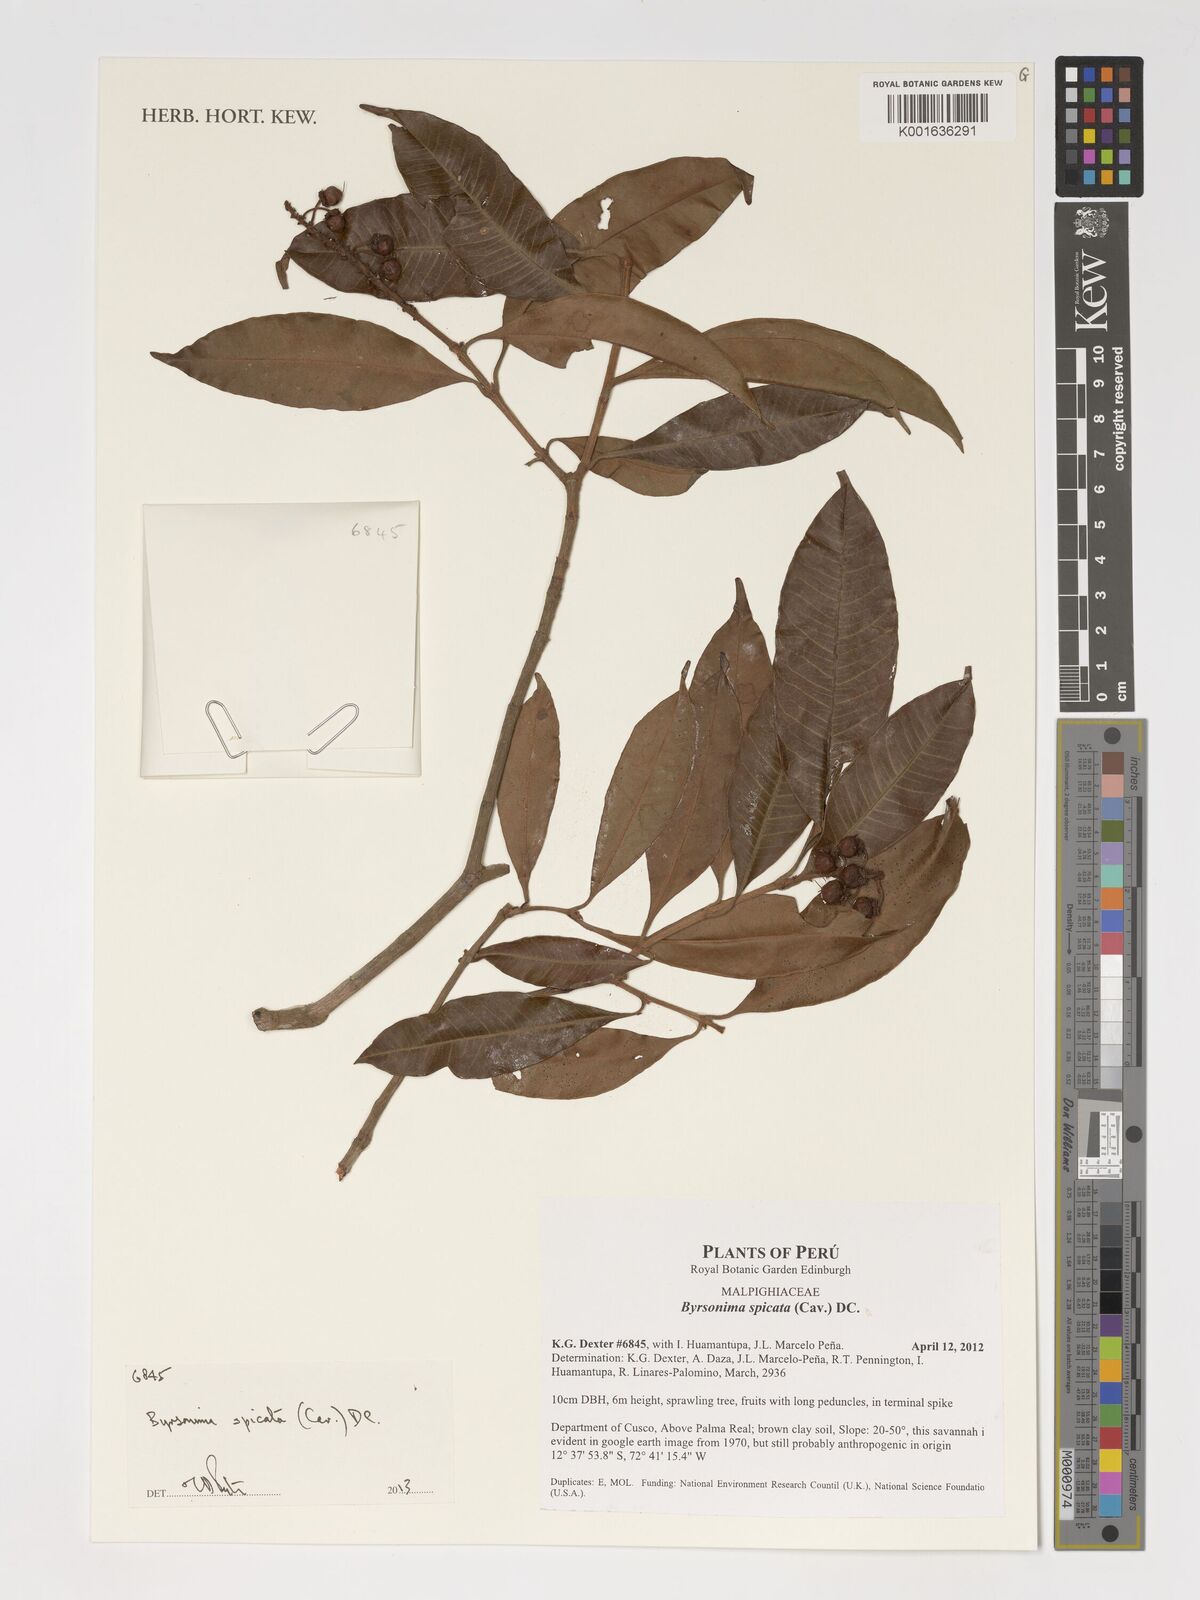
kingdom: Plantae
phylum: Tracheophyta
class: Magnoliopsida
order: Malpighiales
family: Malpighiaceae
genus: Byrsonima
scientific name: Byrsonima
